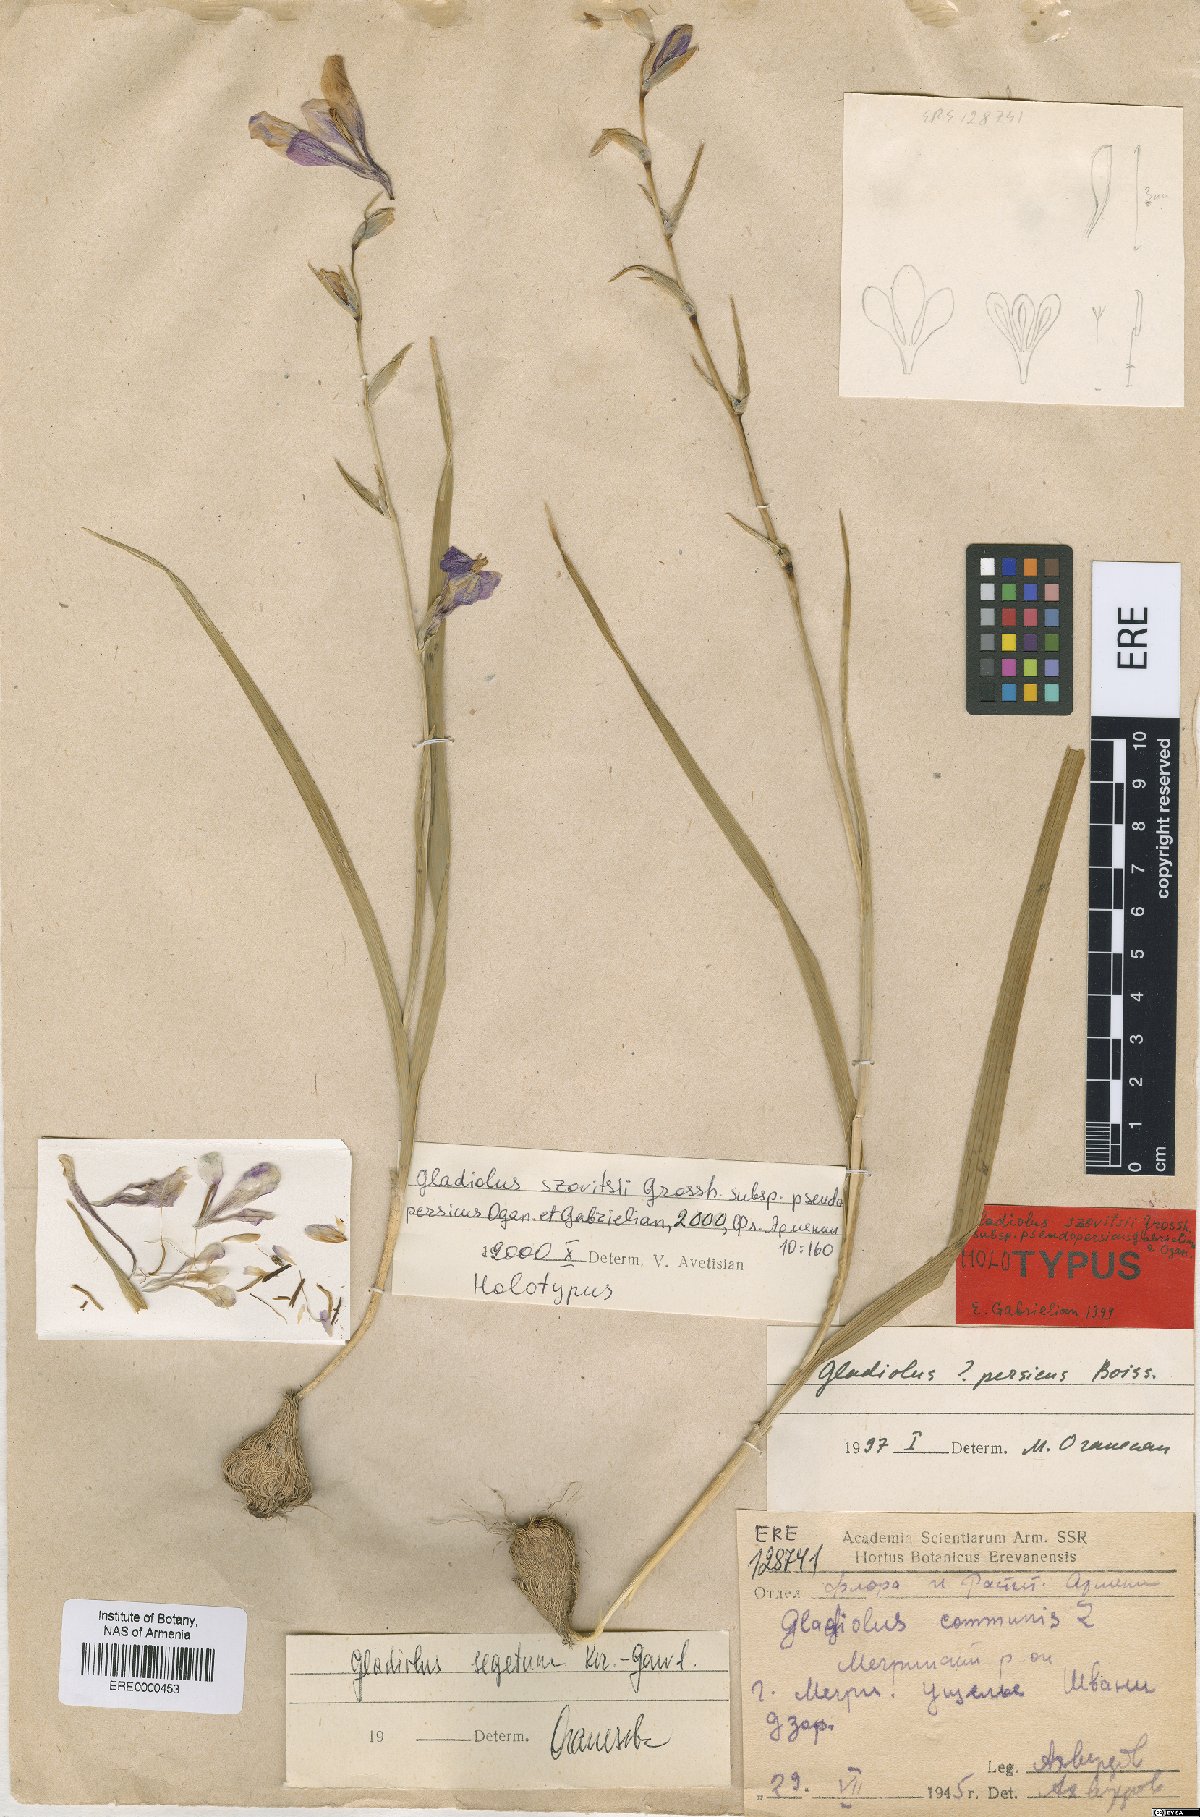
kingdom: Plantae
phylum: Tracheophyta
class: Liliopsida
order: Asparagales
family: Iridaceae
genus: Gladiolus
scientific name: Gladiolus szovitsii
